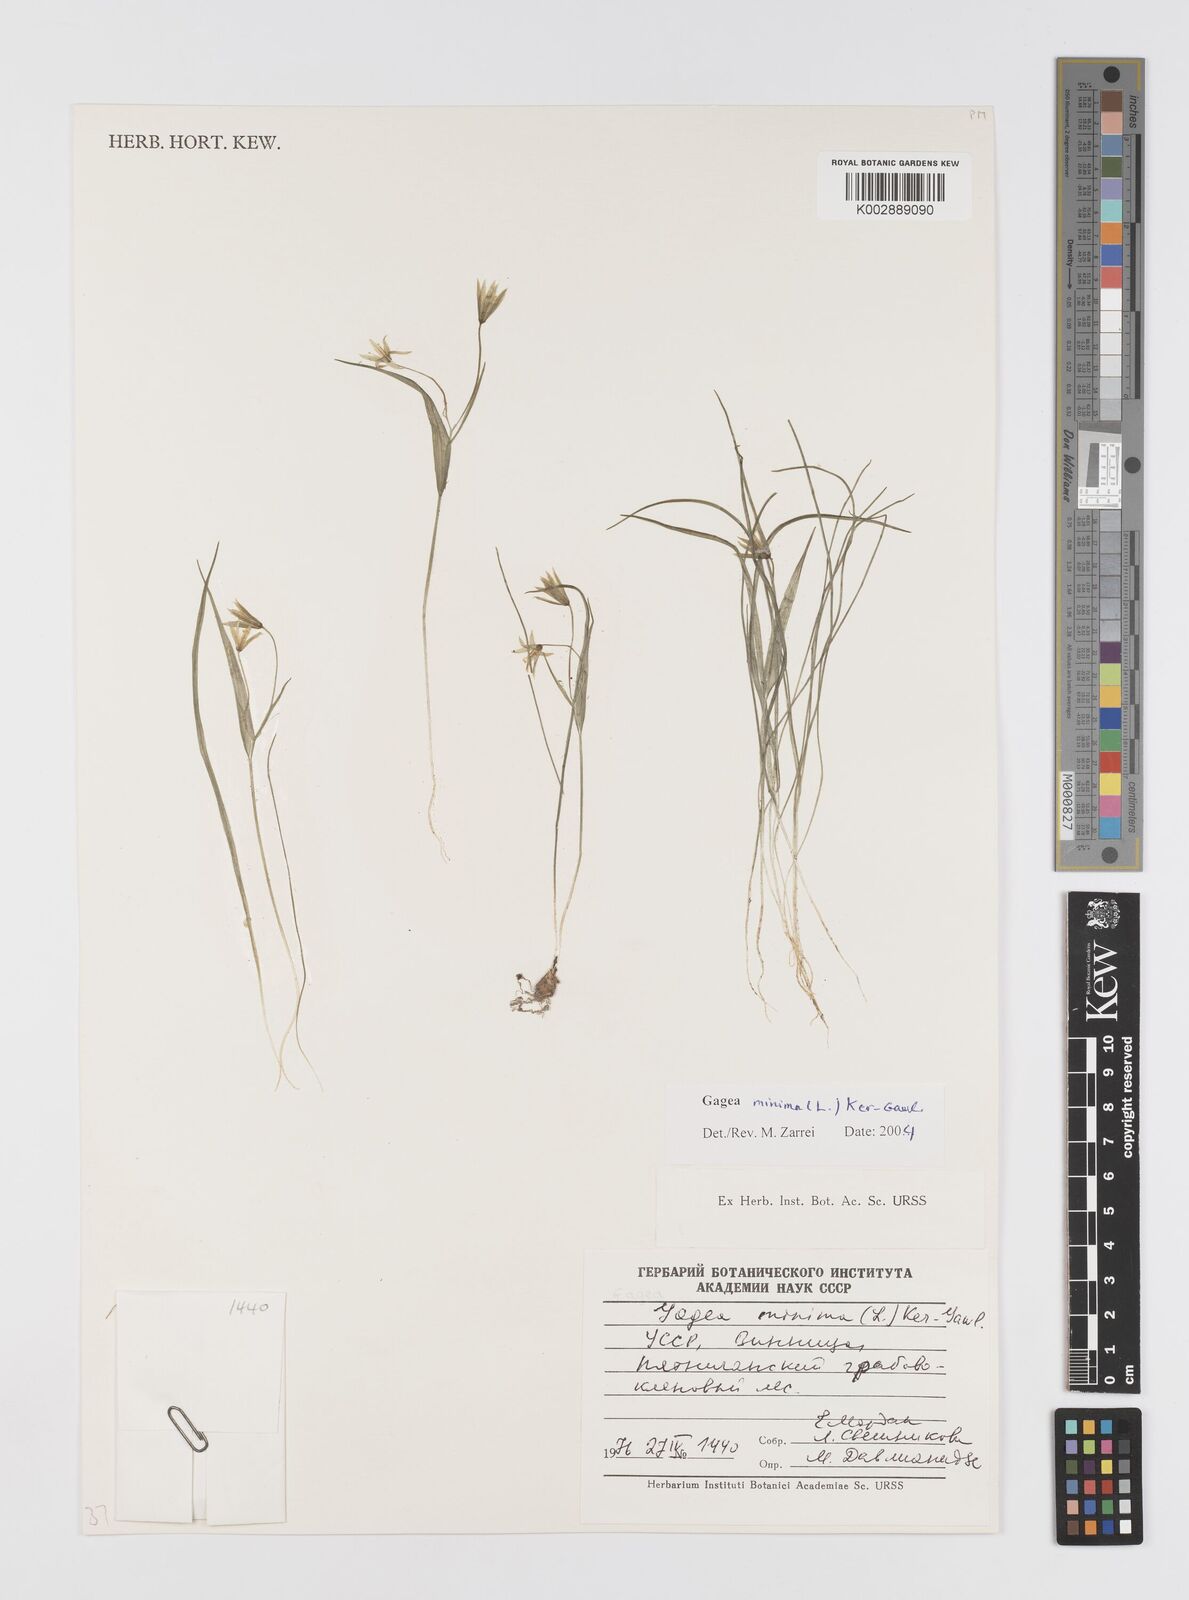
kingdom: Plantae
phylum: Tracheophyta
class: Liliopsida
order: Liliales
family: Liliaceae
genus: Gagea
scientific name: Gagea minima
